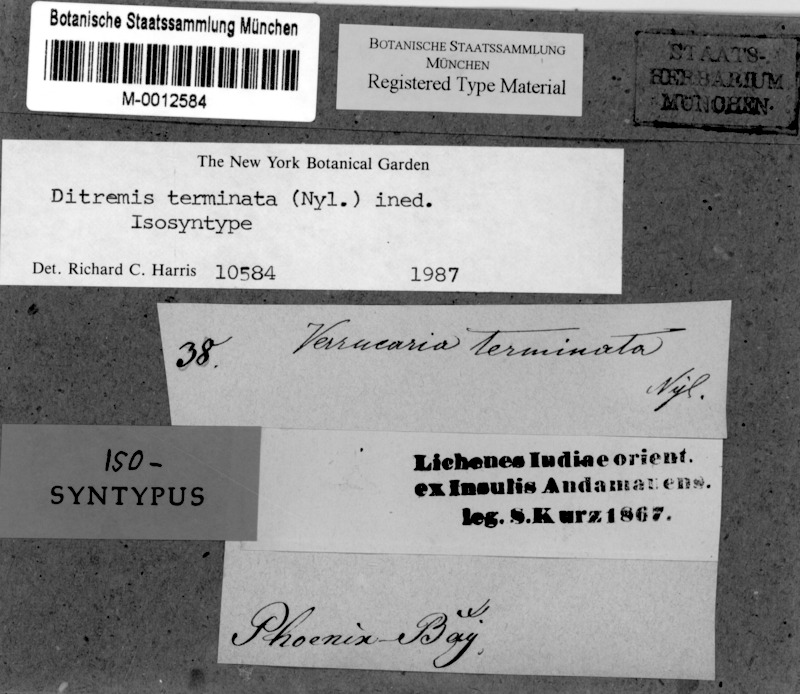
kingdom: Fungi
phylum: Ascomycota
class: Dothideomycetes
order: Monoblastiales
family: Monoblastiaceae
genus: Anisomeridium
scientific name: Anisomeridium terminatum
